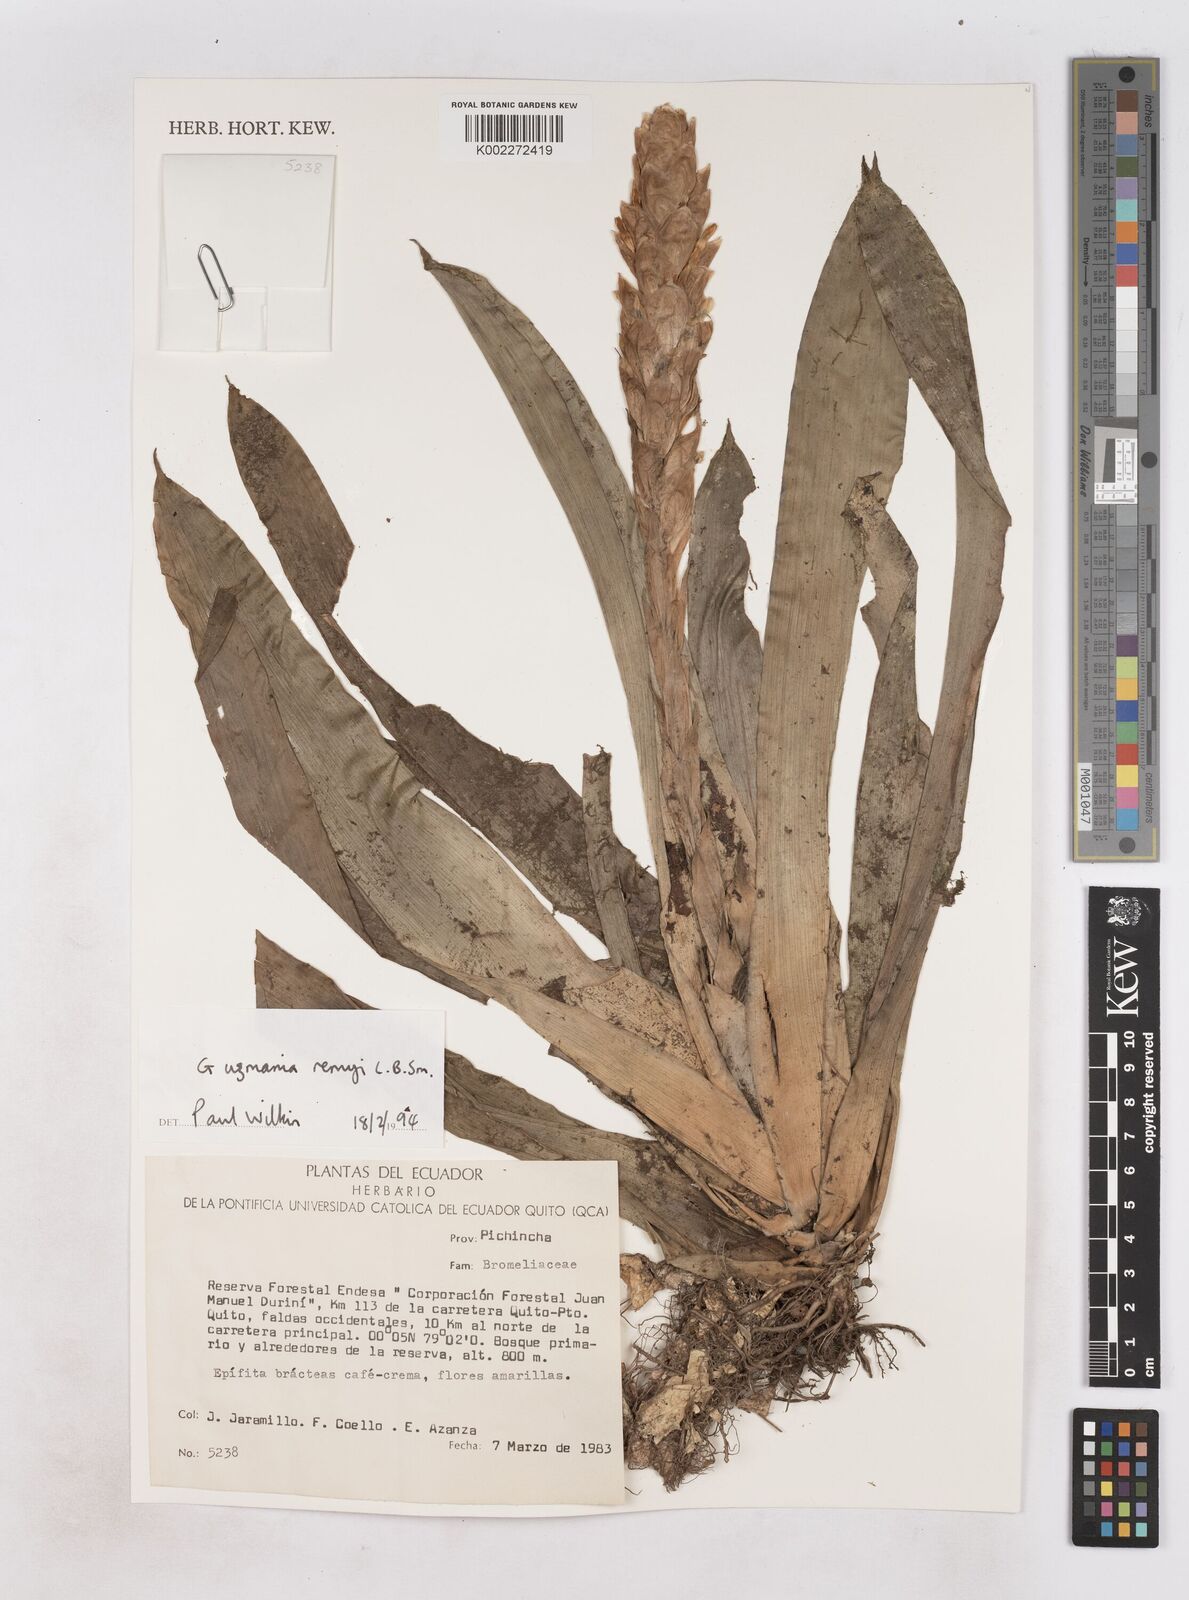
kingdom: Plantae
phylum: Tracheophyta
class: Liliopsida
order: Poales
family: Bromeliaceae
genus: Guzmania
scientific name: Guzmania remyi
